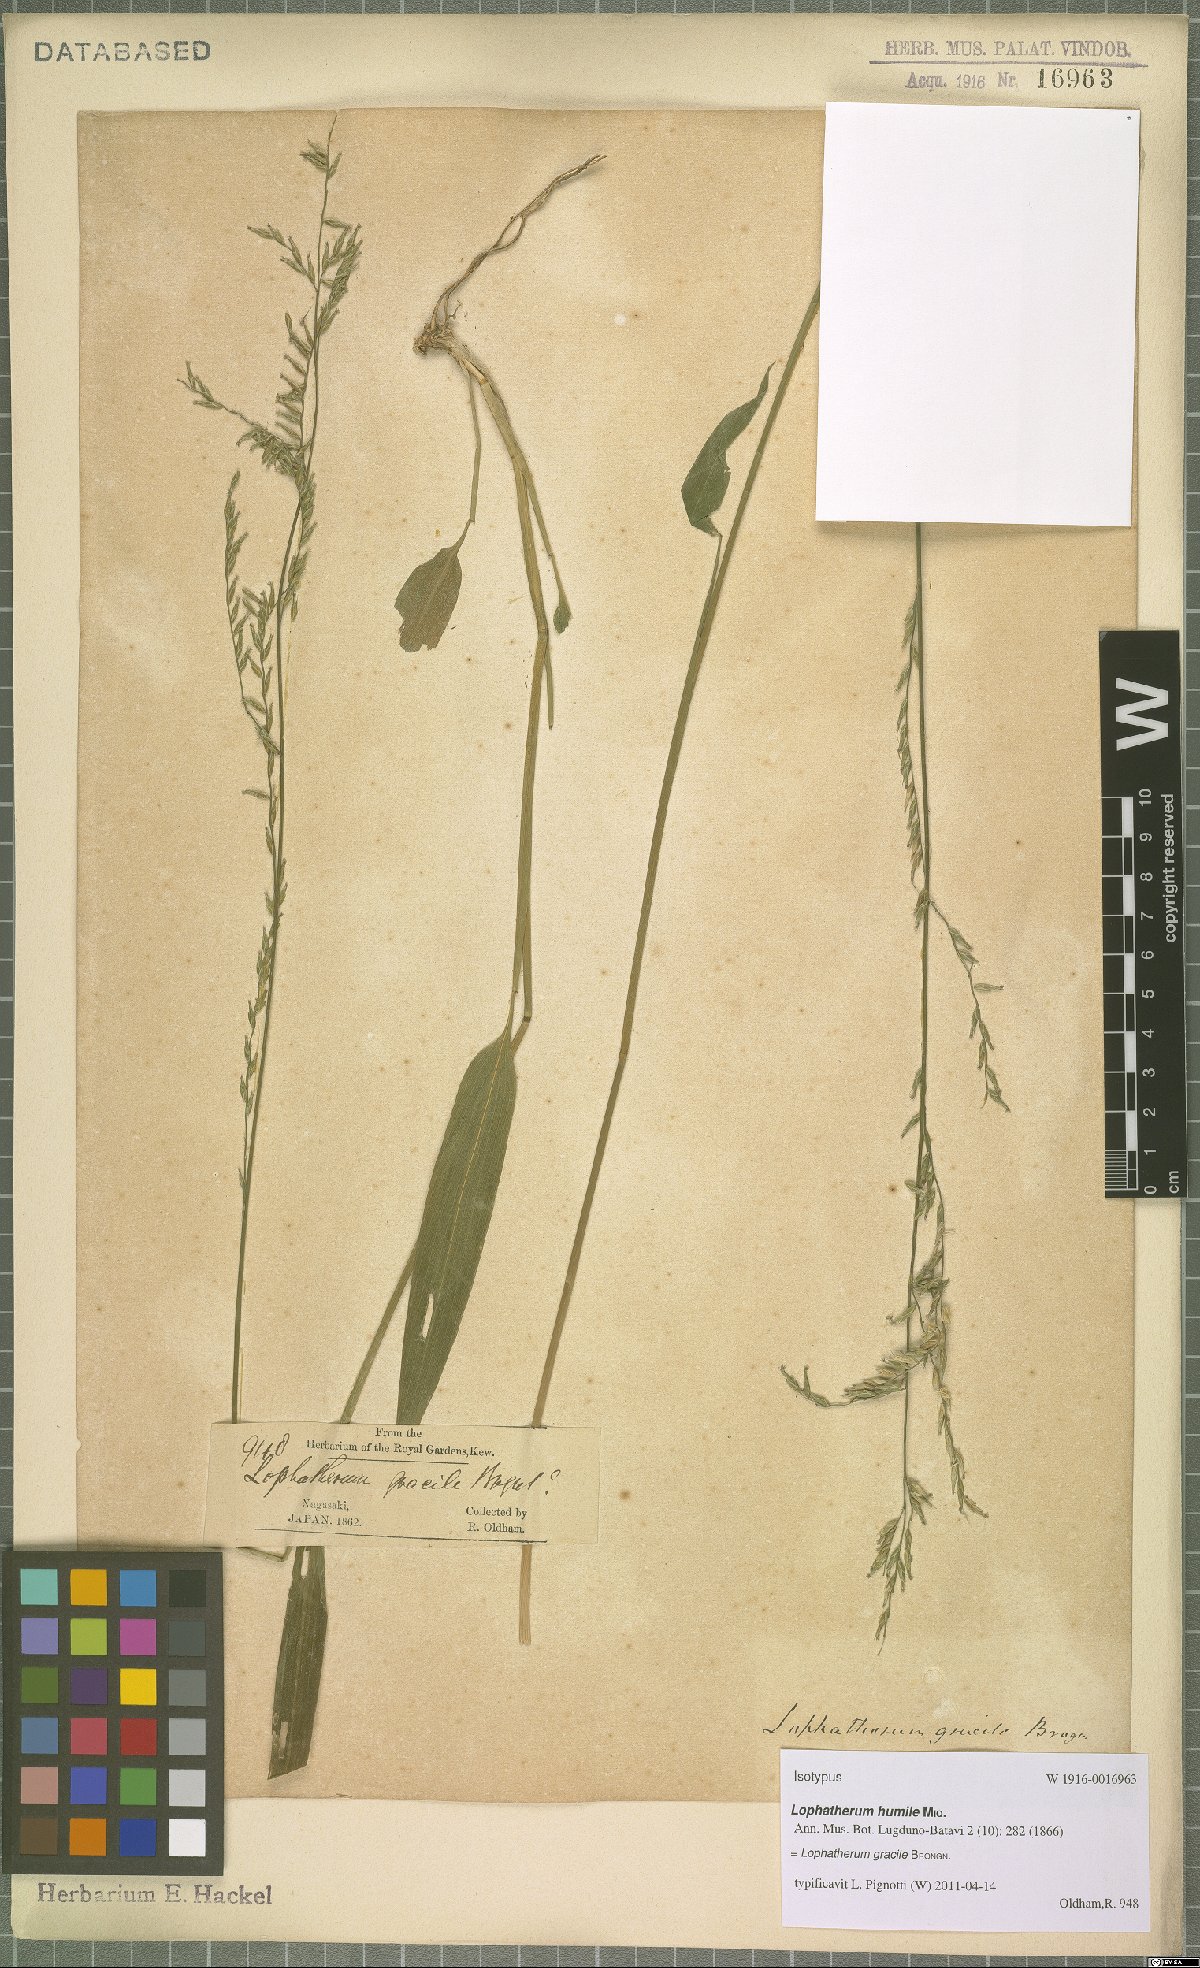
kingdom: Plantae
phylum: Tracheophyta
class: Liliopsida
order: Poales
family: Poaceae
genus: Lophatherum
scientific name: Lophatherum gracile
